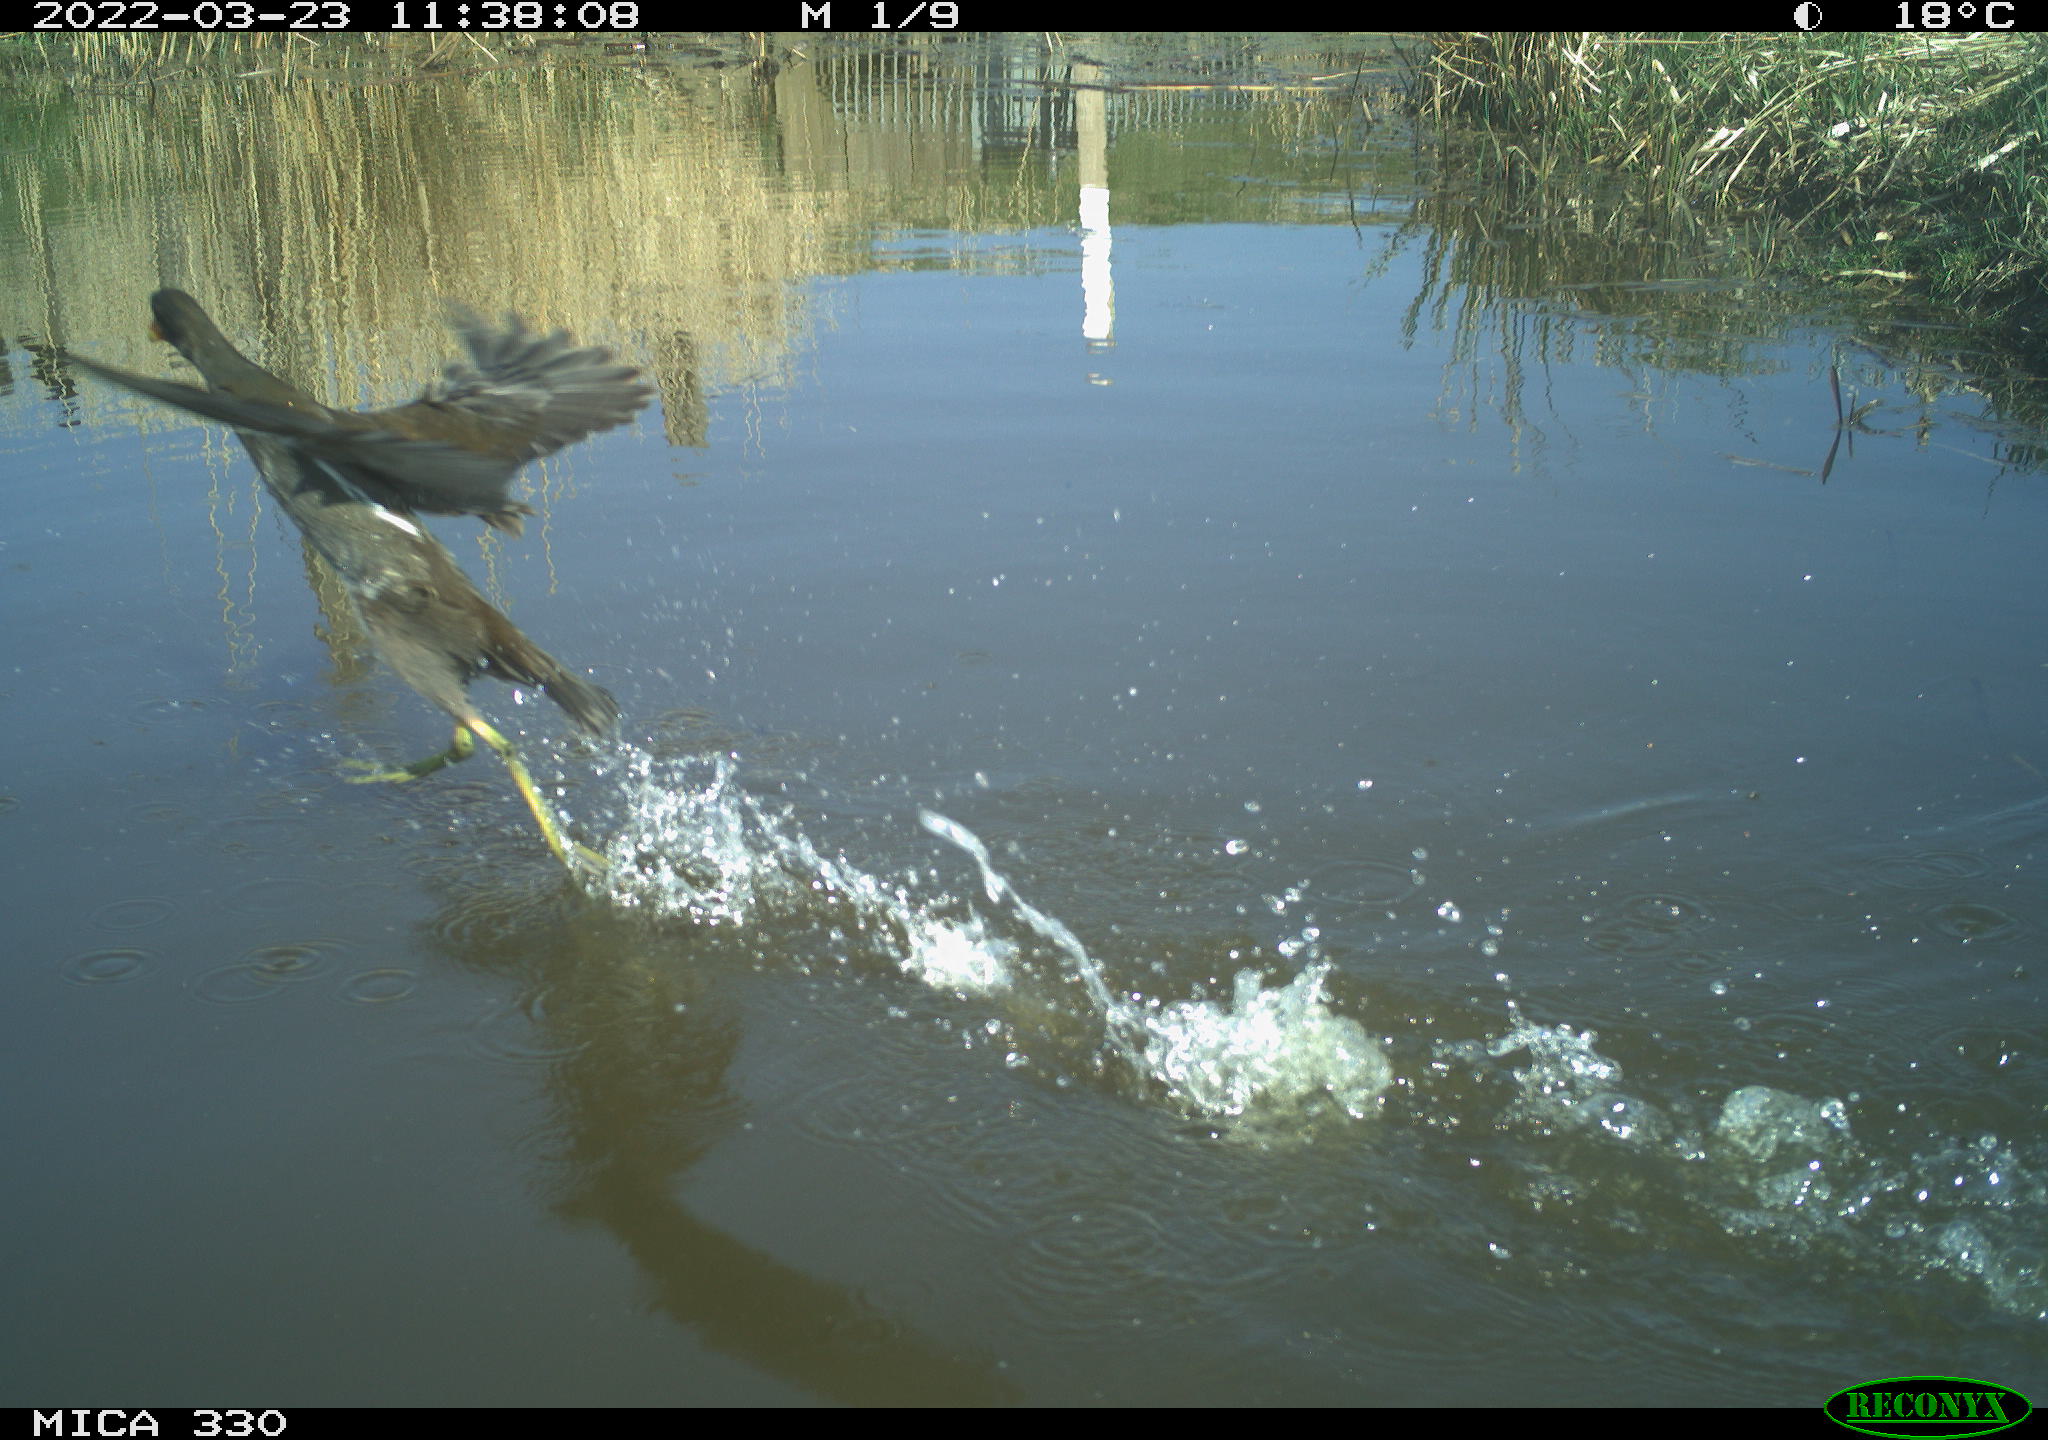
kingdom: Animalia
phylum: Chordata
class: Aves
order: Gruiformes
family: Rallidae
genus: Gallinula
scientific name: Gallinula chloropus
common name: Common moorhen
